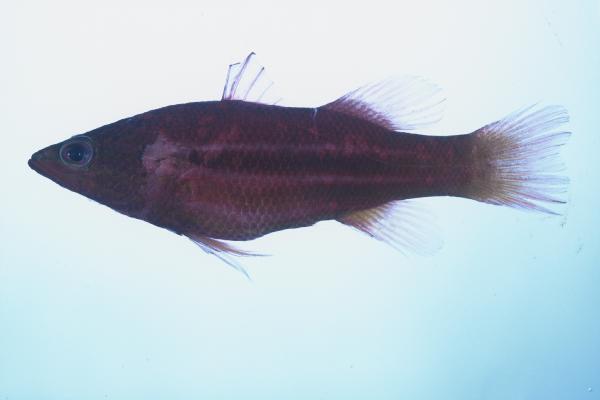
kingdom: Animalia
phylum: Chordata
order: Perciformes
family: Serranidae
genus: Liopropoma
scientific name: Liopropoma africanum
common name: African basslet
